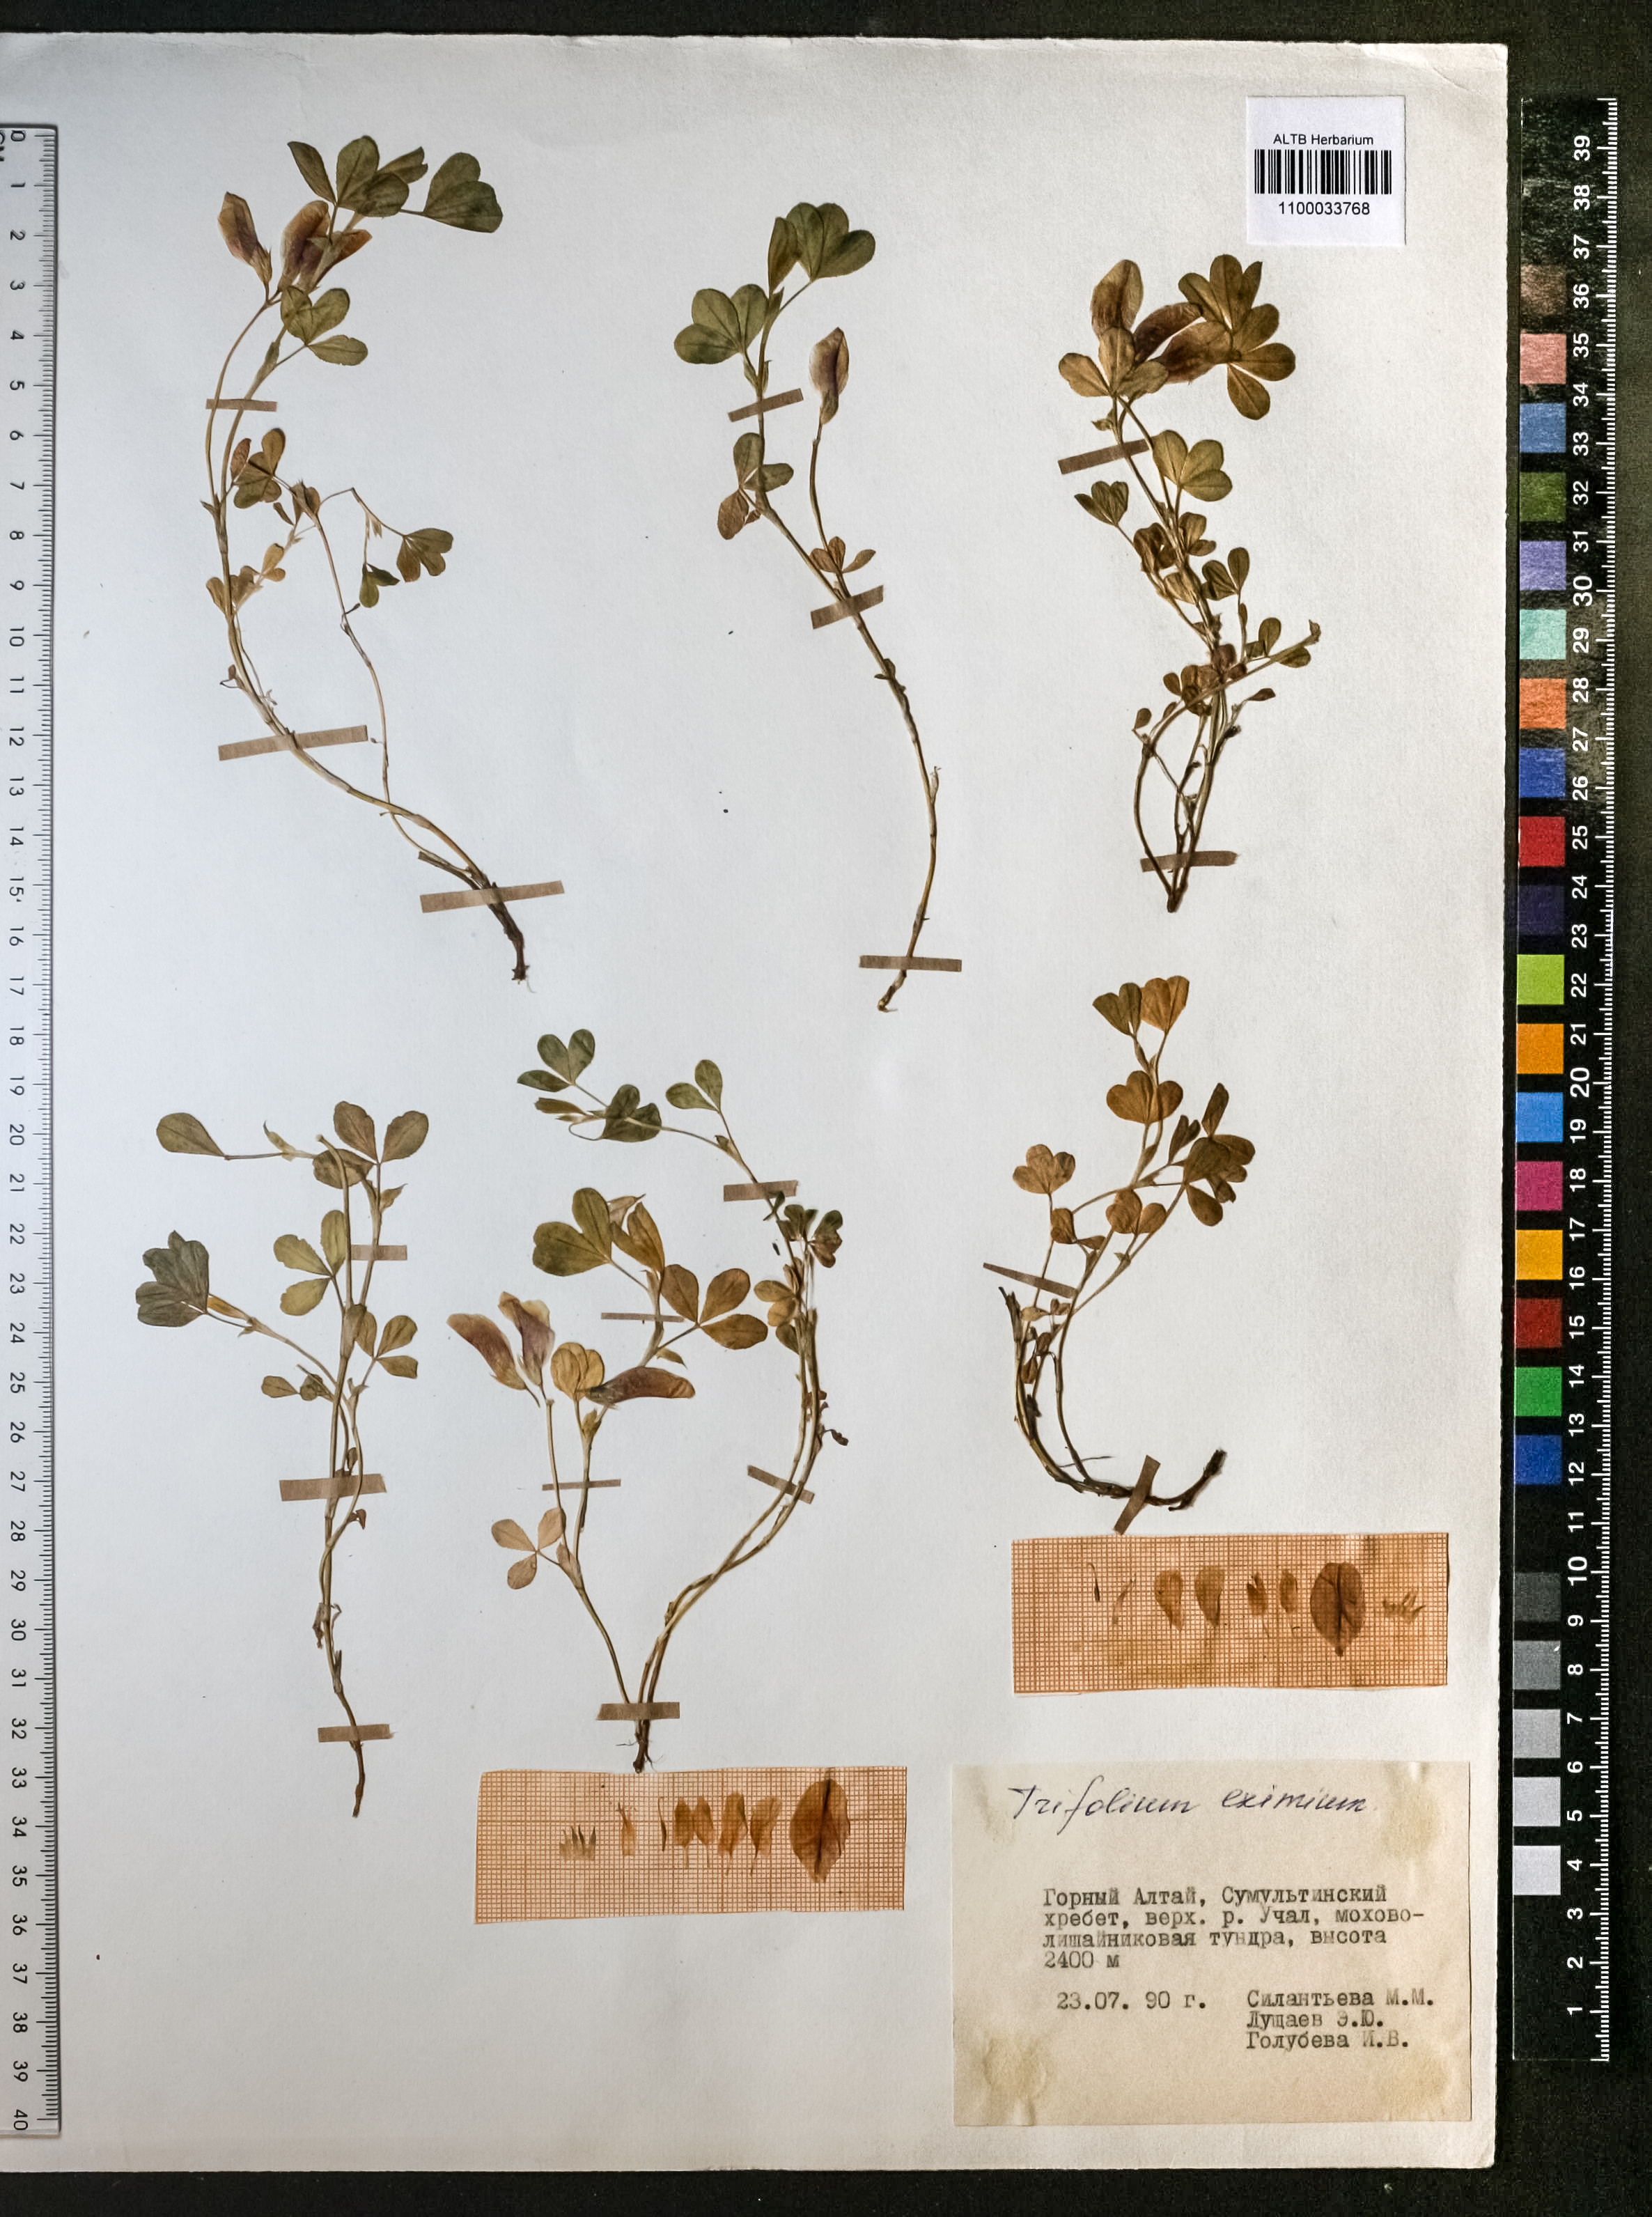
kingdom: Plantae
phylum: Tracheophyta
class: Magnoliopsida
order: Fabales
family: Fabaceae
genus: Trifolium
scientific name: Trifolium eximium
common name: Excellent clover
